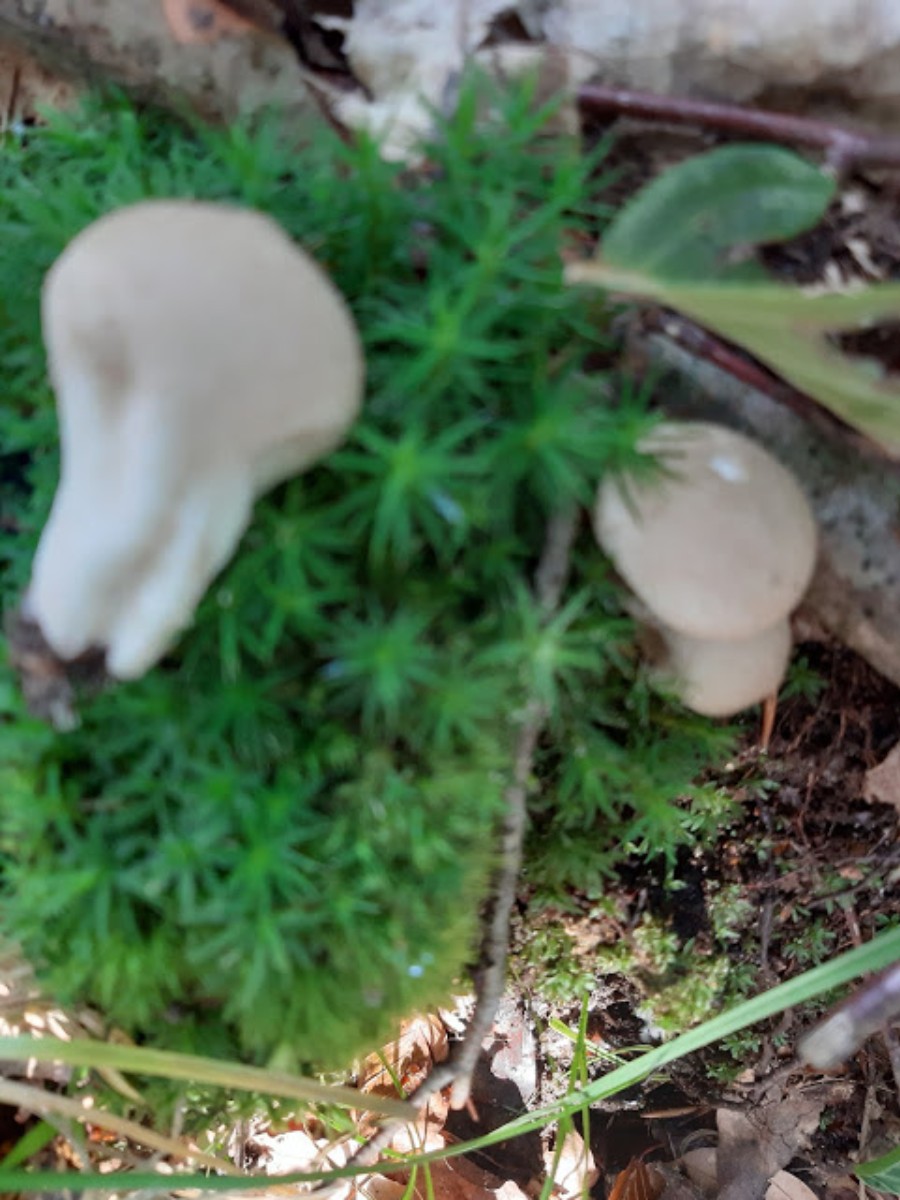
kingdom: Fungi
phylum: Basidiomycota
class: Agaricomycetes
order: Agaricales
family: Lycoperdaceae
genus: Apioperdon
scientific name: Apioperdon pyriforme
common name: pære-støvbold
